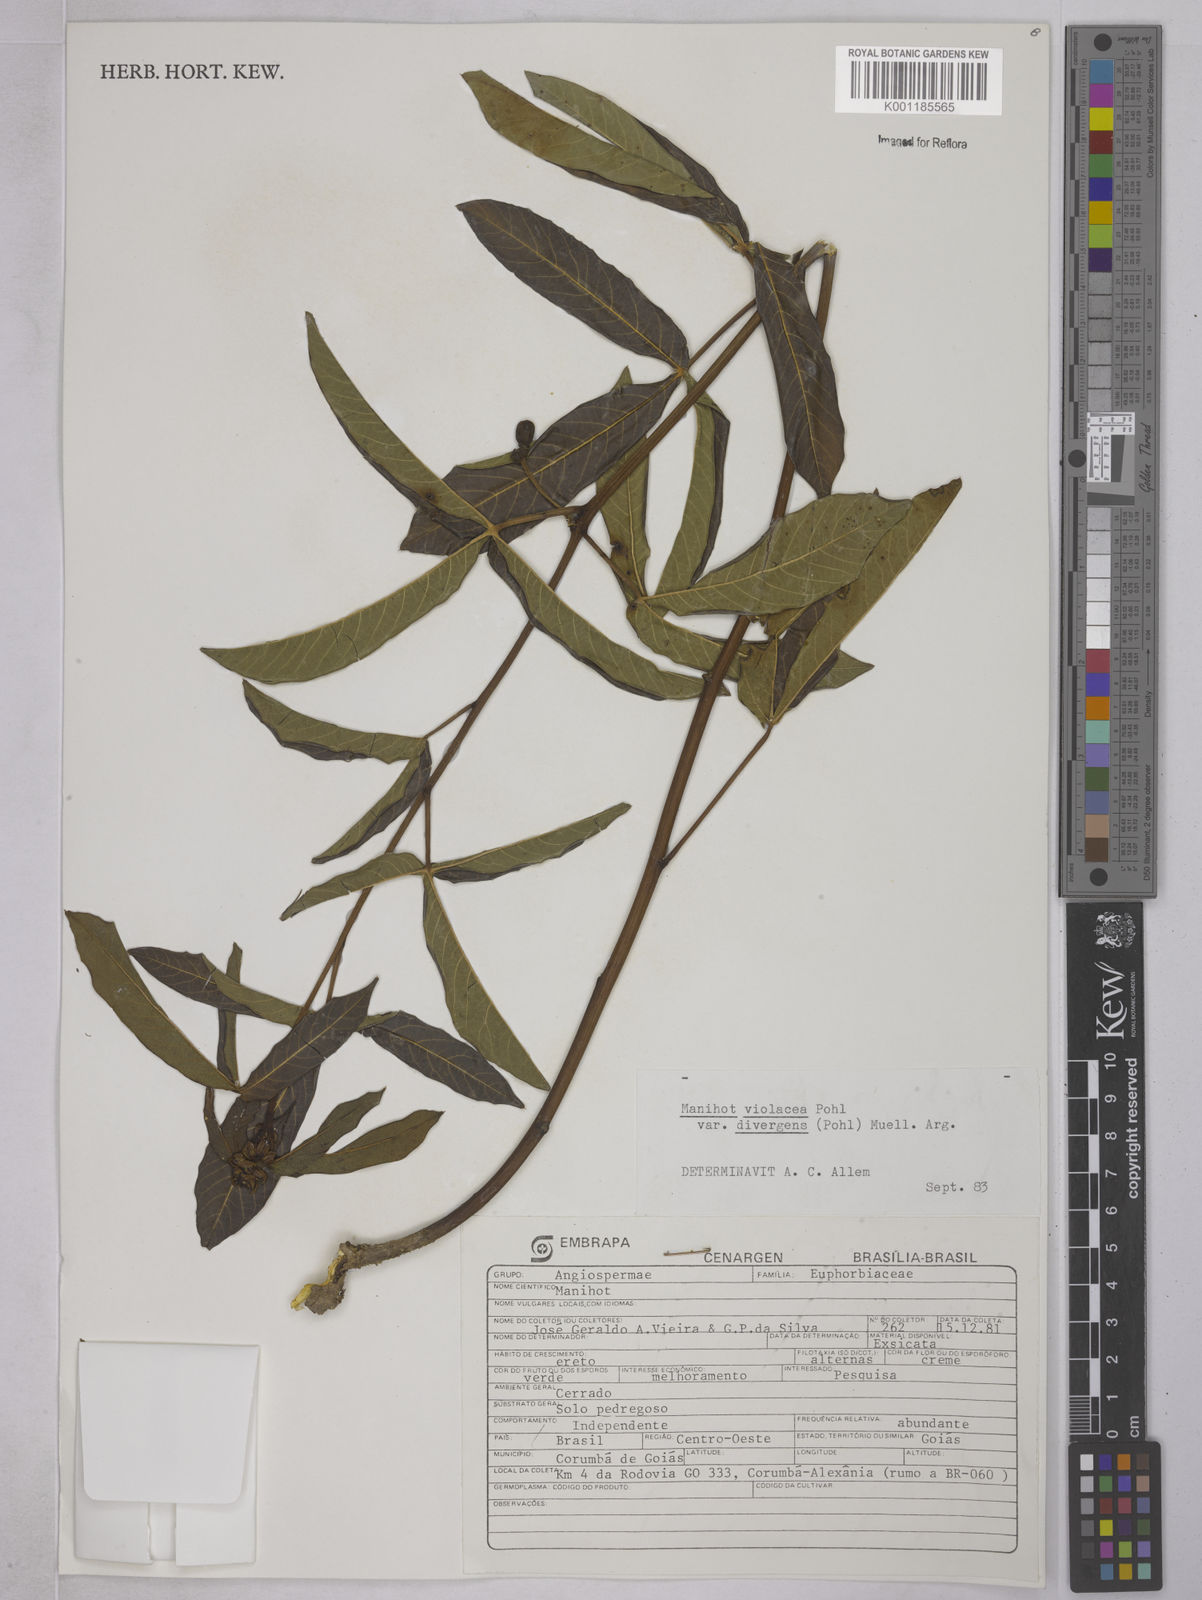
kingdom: Plantae
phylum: Tracheophyta
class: Magnoliopsida
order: Malpighiales
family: Euphorbiaceae
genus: Manihot
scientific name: Manihot divergens
